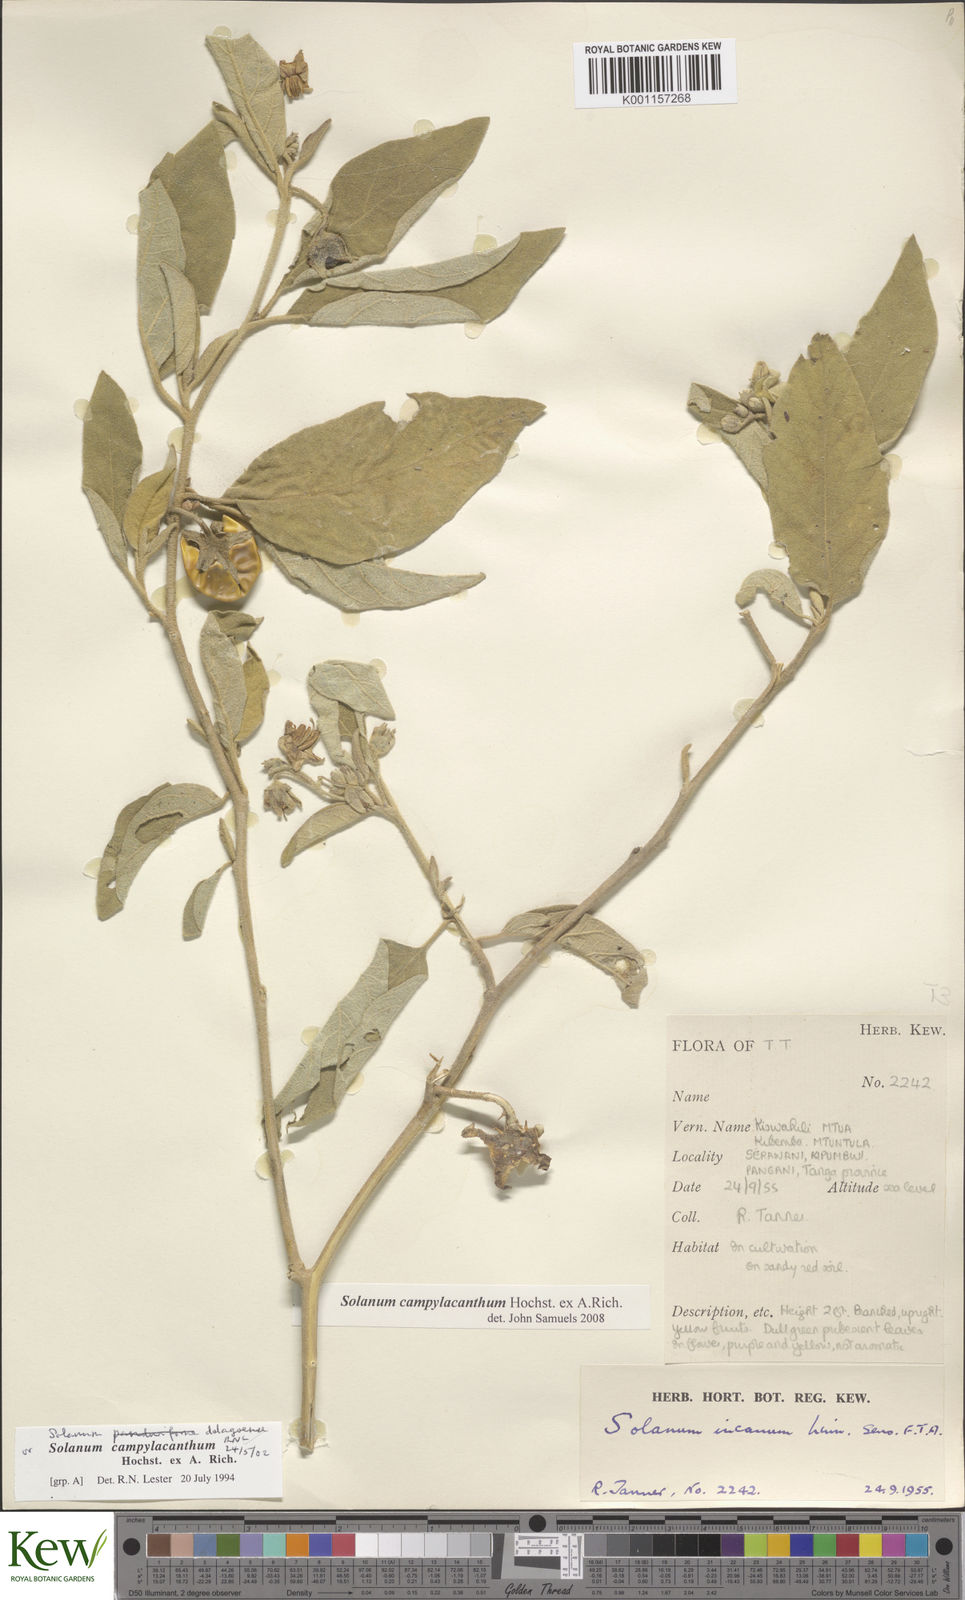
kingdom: Plantae
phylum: Tracheophyta
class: Magnoliopsida
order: Solanales
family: Solanaceae
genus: Solanum
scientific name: Solanum campylacanthum
